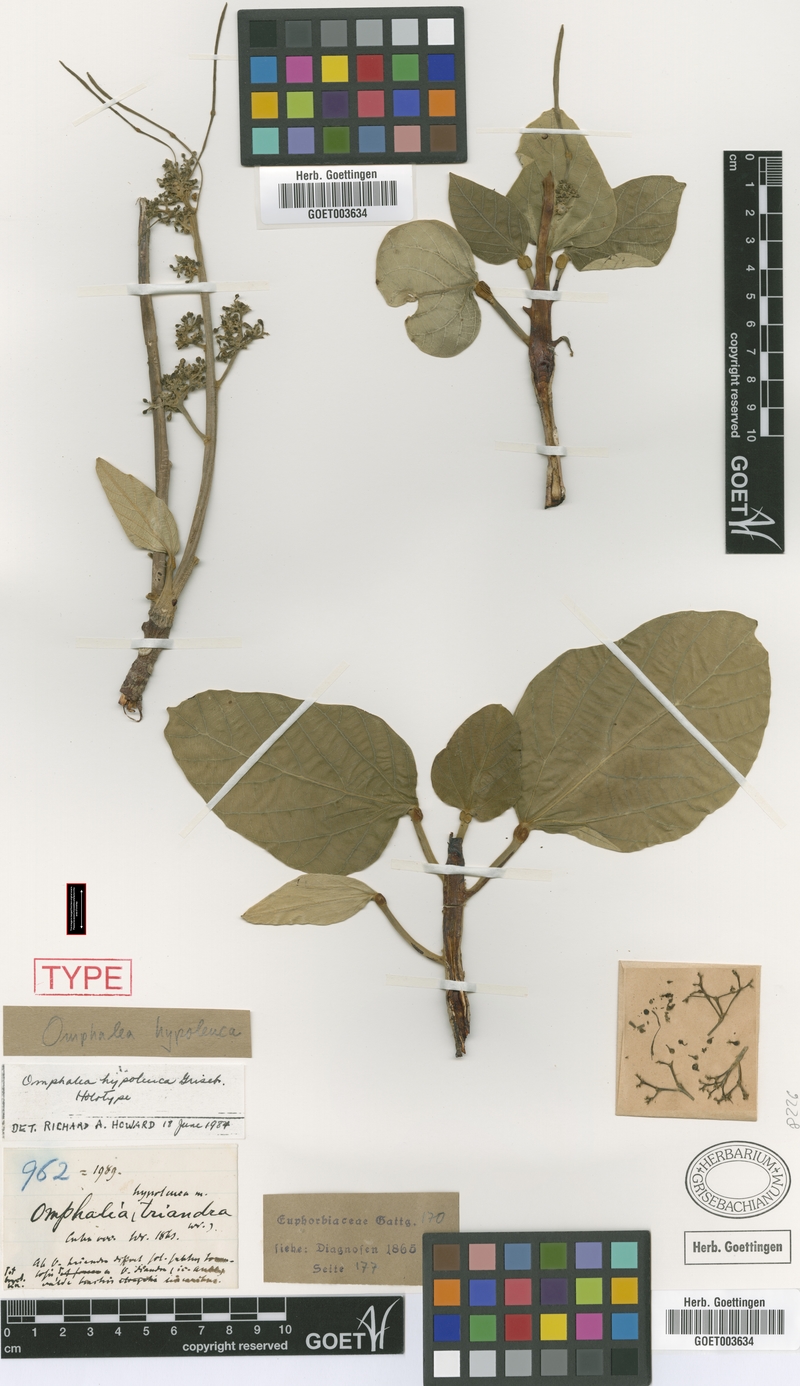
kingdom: Plantae
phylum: Tracheophyta
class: Magnoliopsida
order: Malpighiales
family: Euphorbiaceae
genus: Omphalea
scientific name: Omphalea hypoleuca
